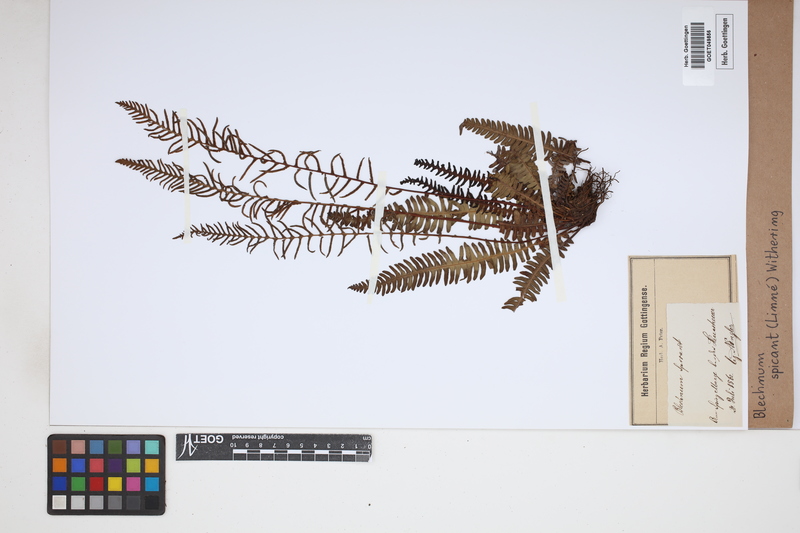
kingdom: Plantae
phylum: Tracheophyta
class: Polypodiopsida
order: Polypodiales
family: Blechnaceae
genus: Struthiopteris
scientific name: Struthiopteris spicant
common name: Deer fern
